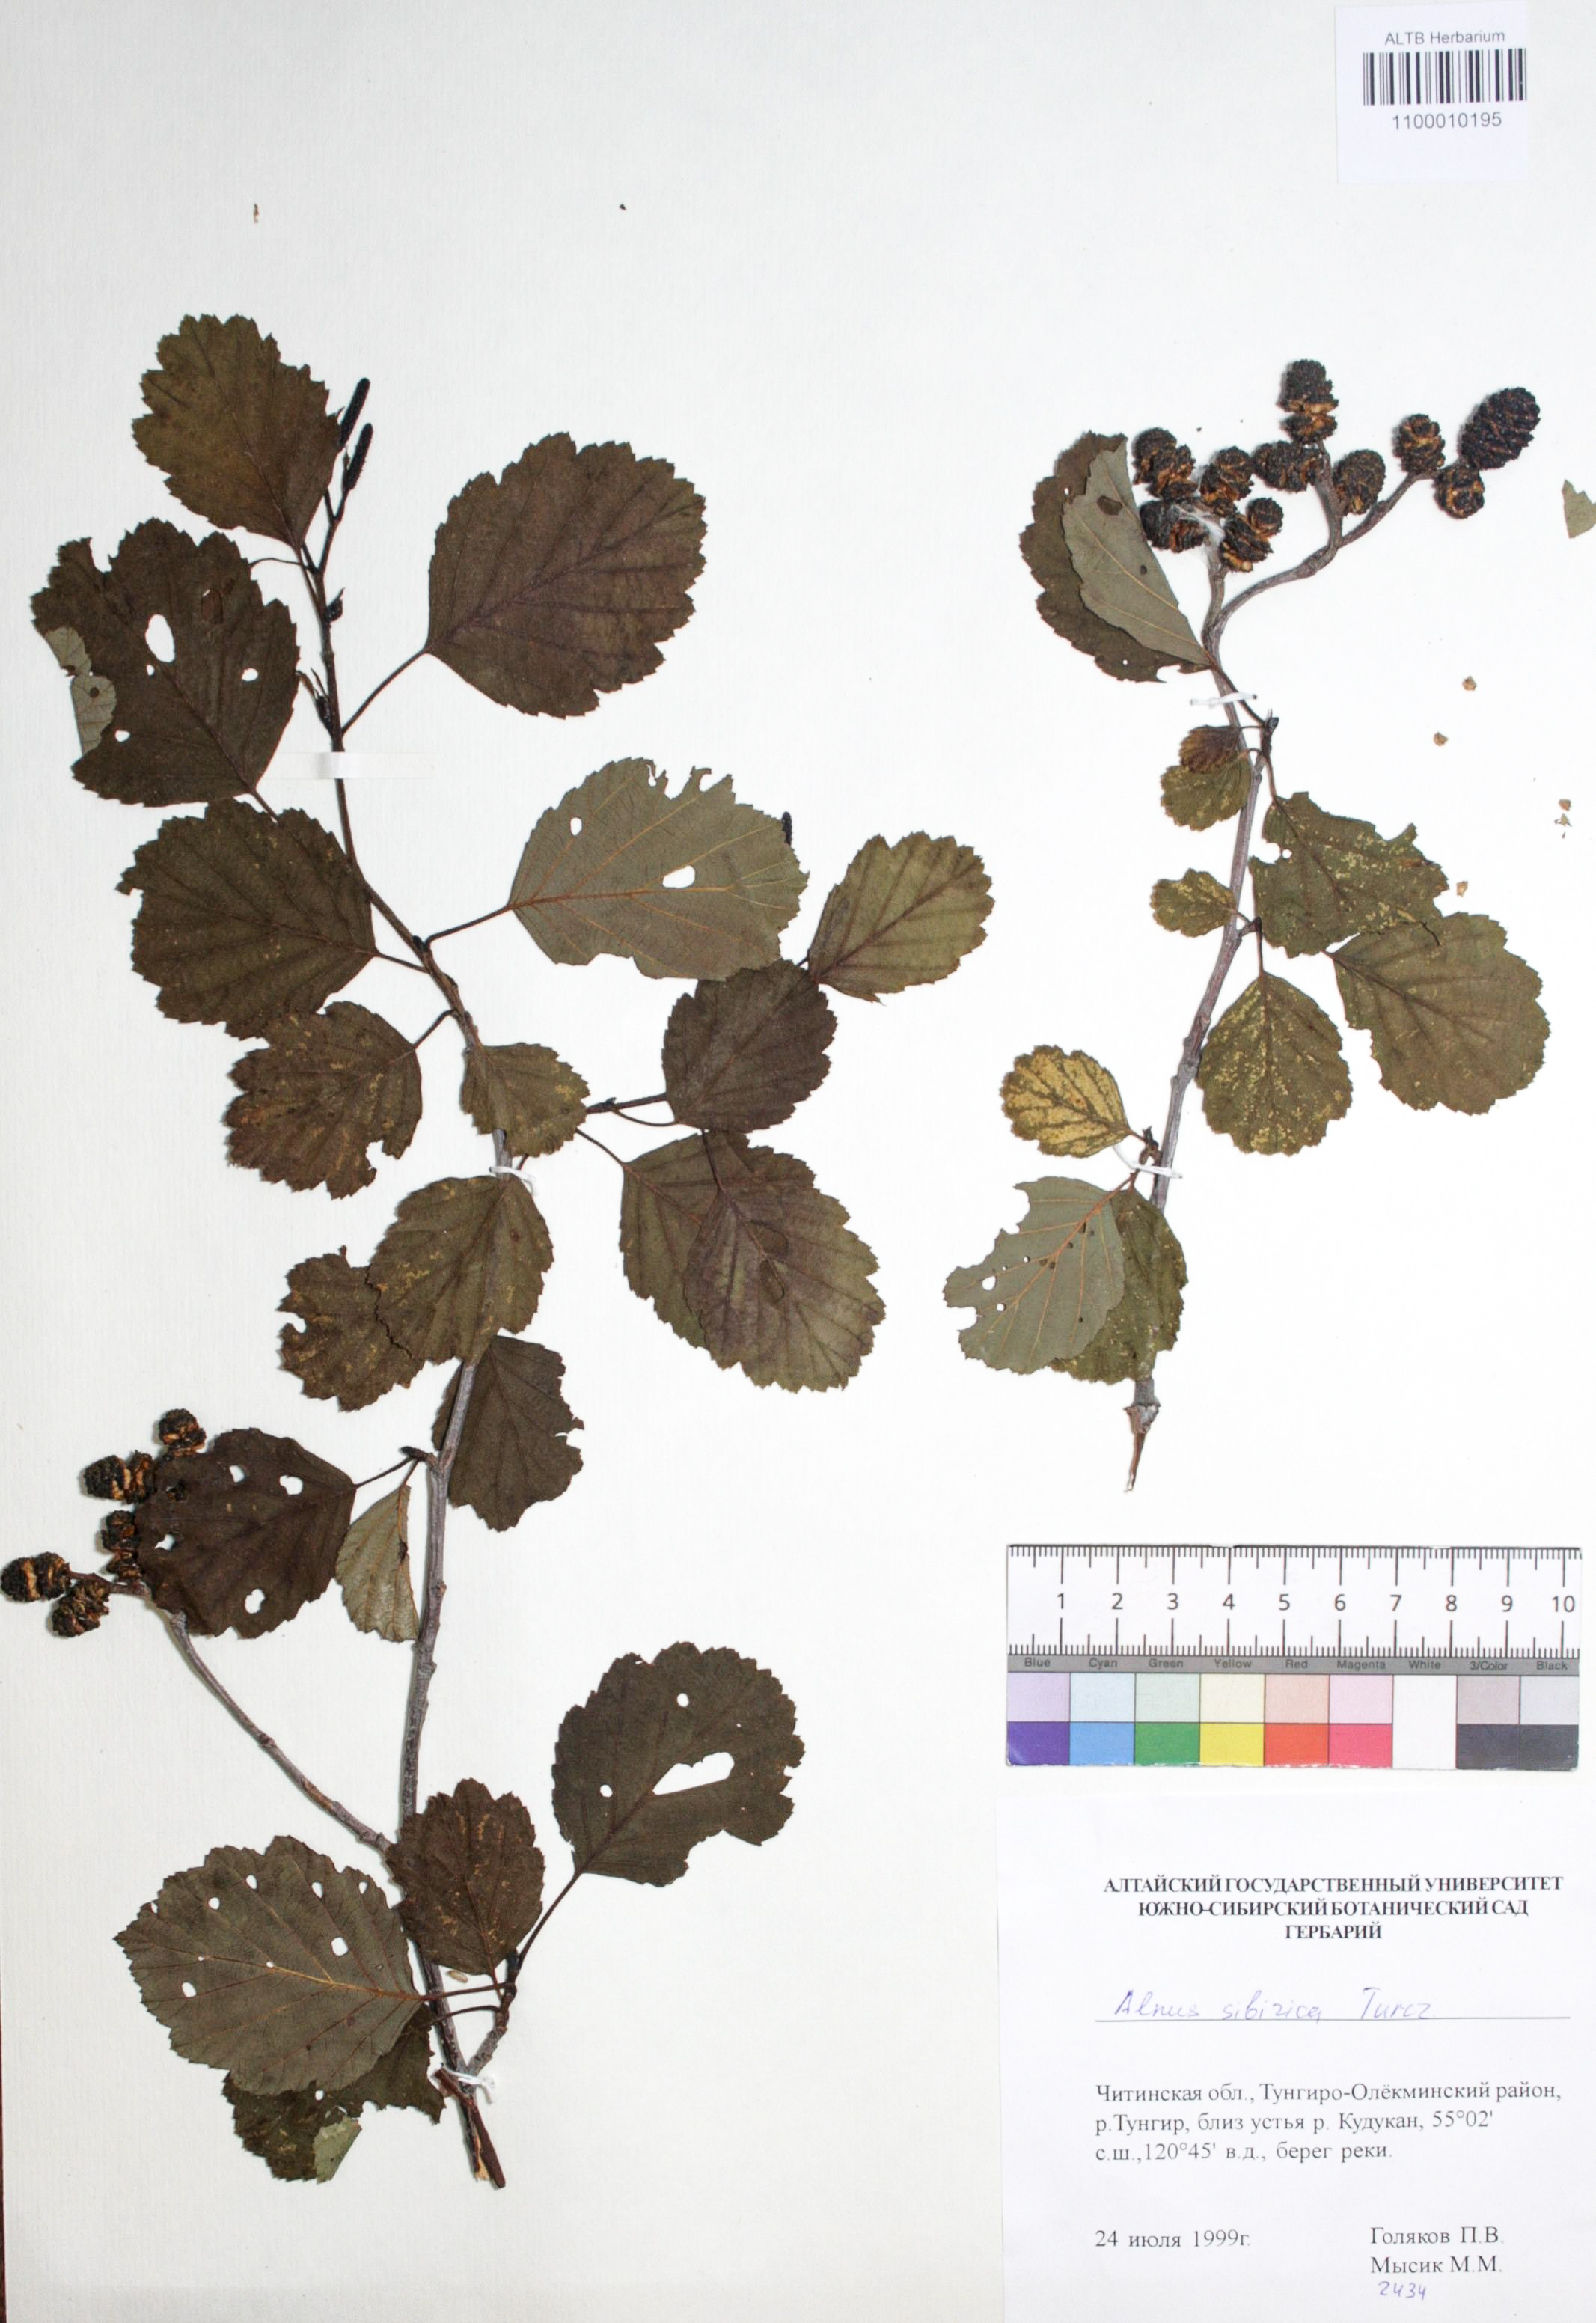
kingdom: Plantae
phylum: Tracheophyta
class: Magnoliopsida
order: Fagales
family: Betulaceae
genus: Alnus
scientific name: Alnus hirsuta
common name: Manchurian alder
